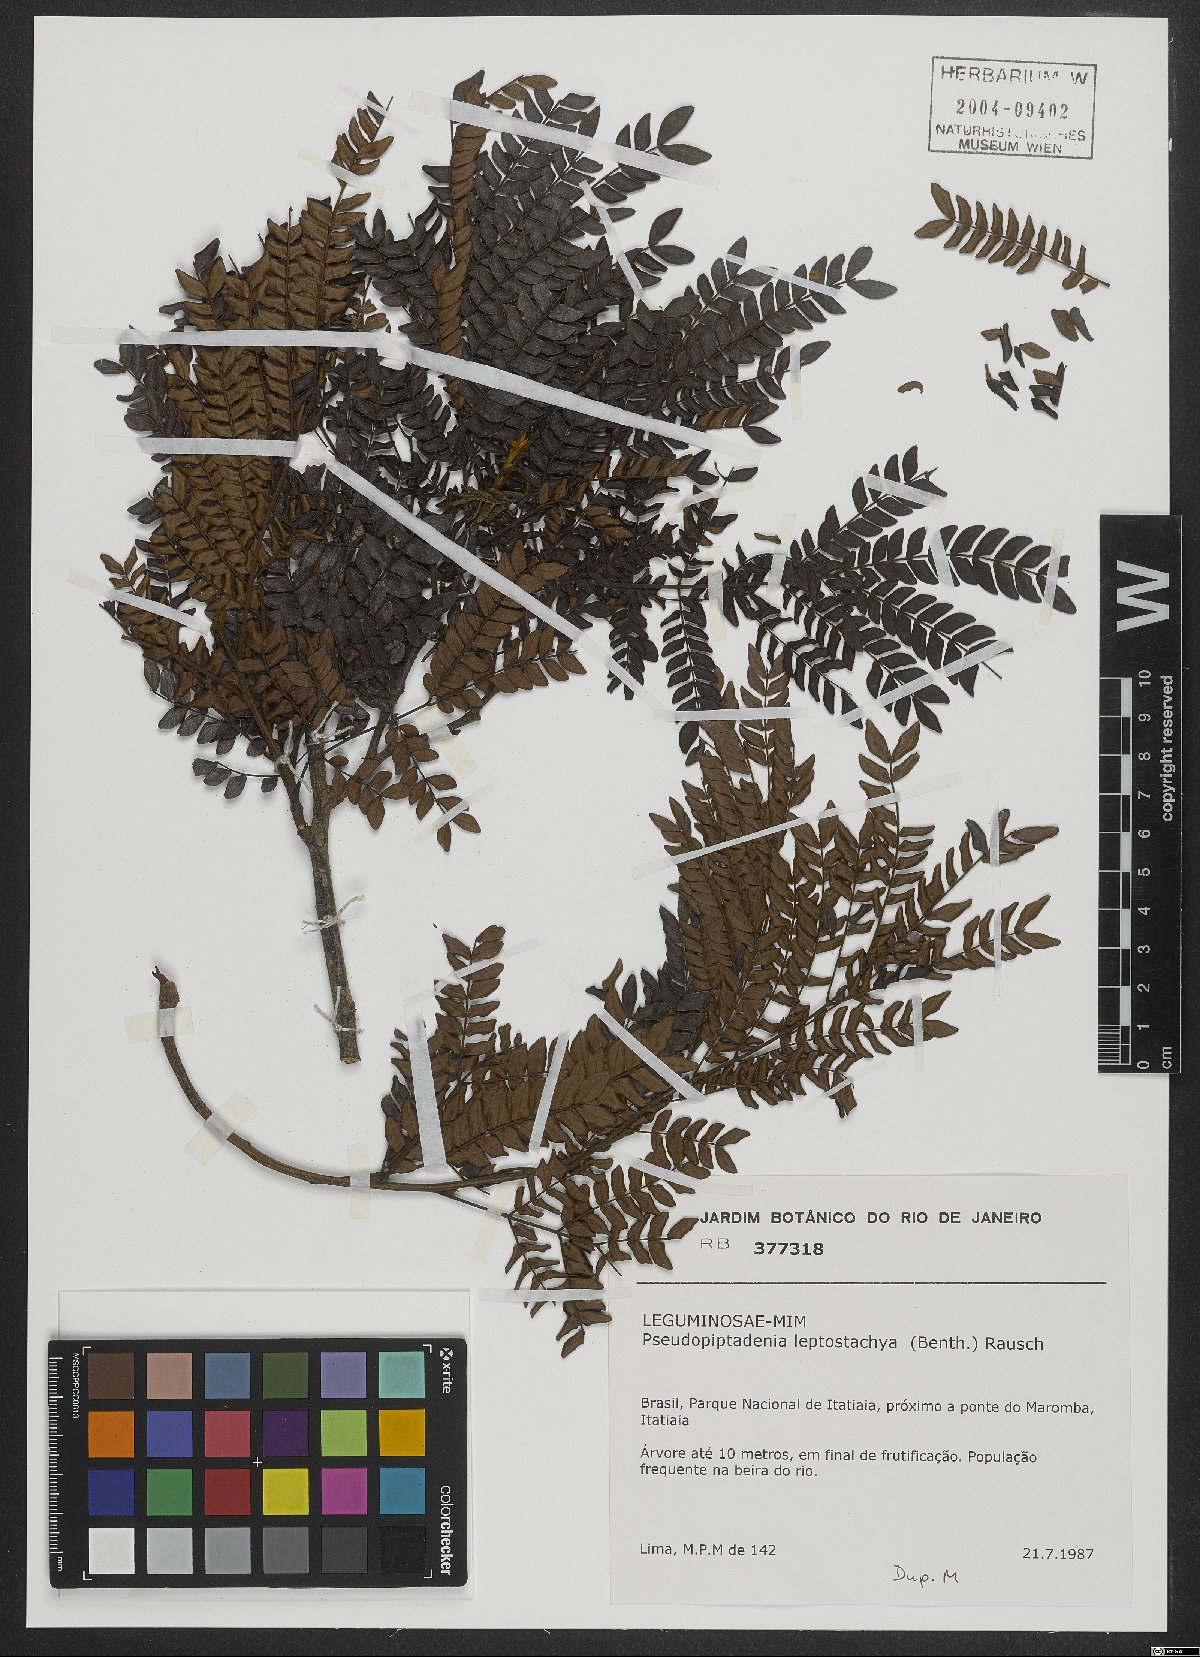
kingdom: Plantae
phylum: Tracheophyta
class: Magnoliopsida
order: Fabales
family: Fabaceae
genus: Pseudopiptadenia
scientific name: Pseudopiptadenia leptostachya
